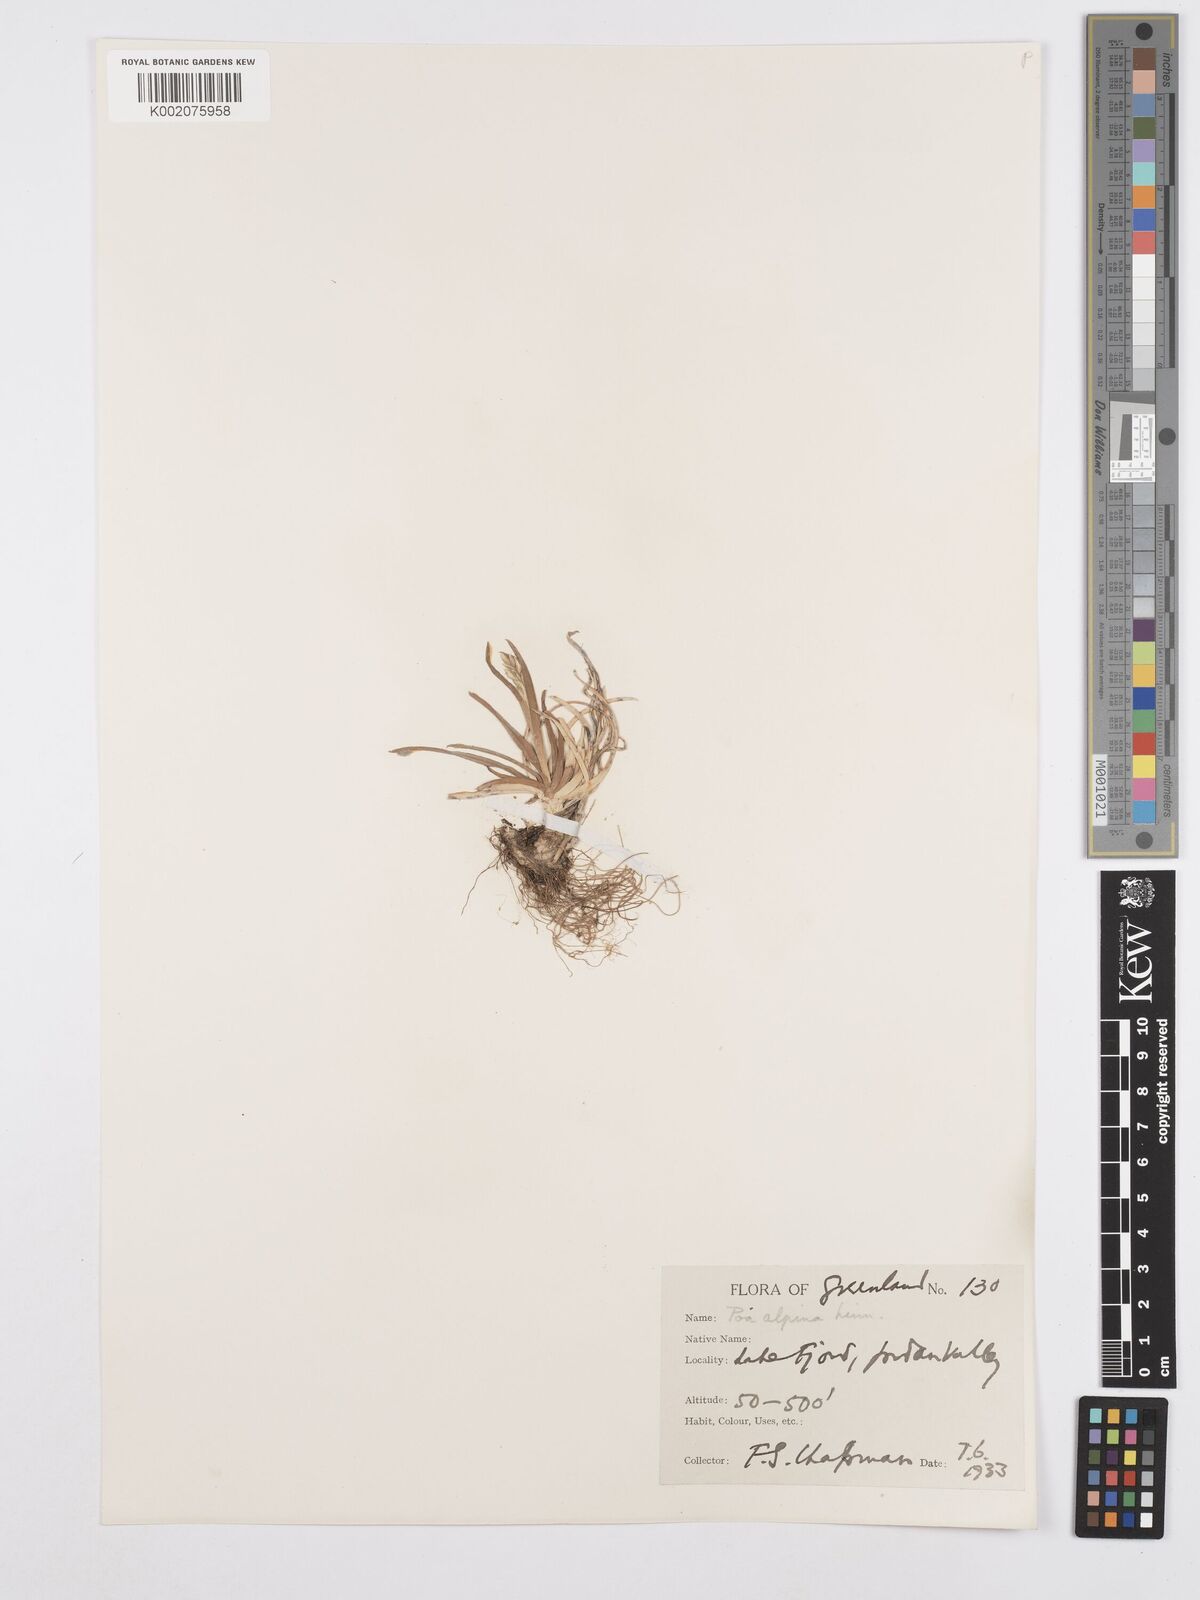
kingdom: Plantae
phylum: Tracheophyta
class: Liliopsida
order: Poales
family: Poaceae
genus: Poa
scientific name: Poa alpina
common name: Alpine bluegrass
